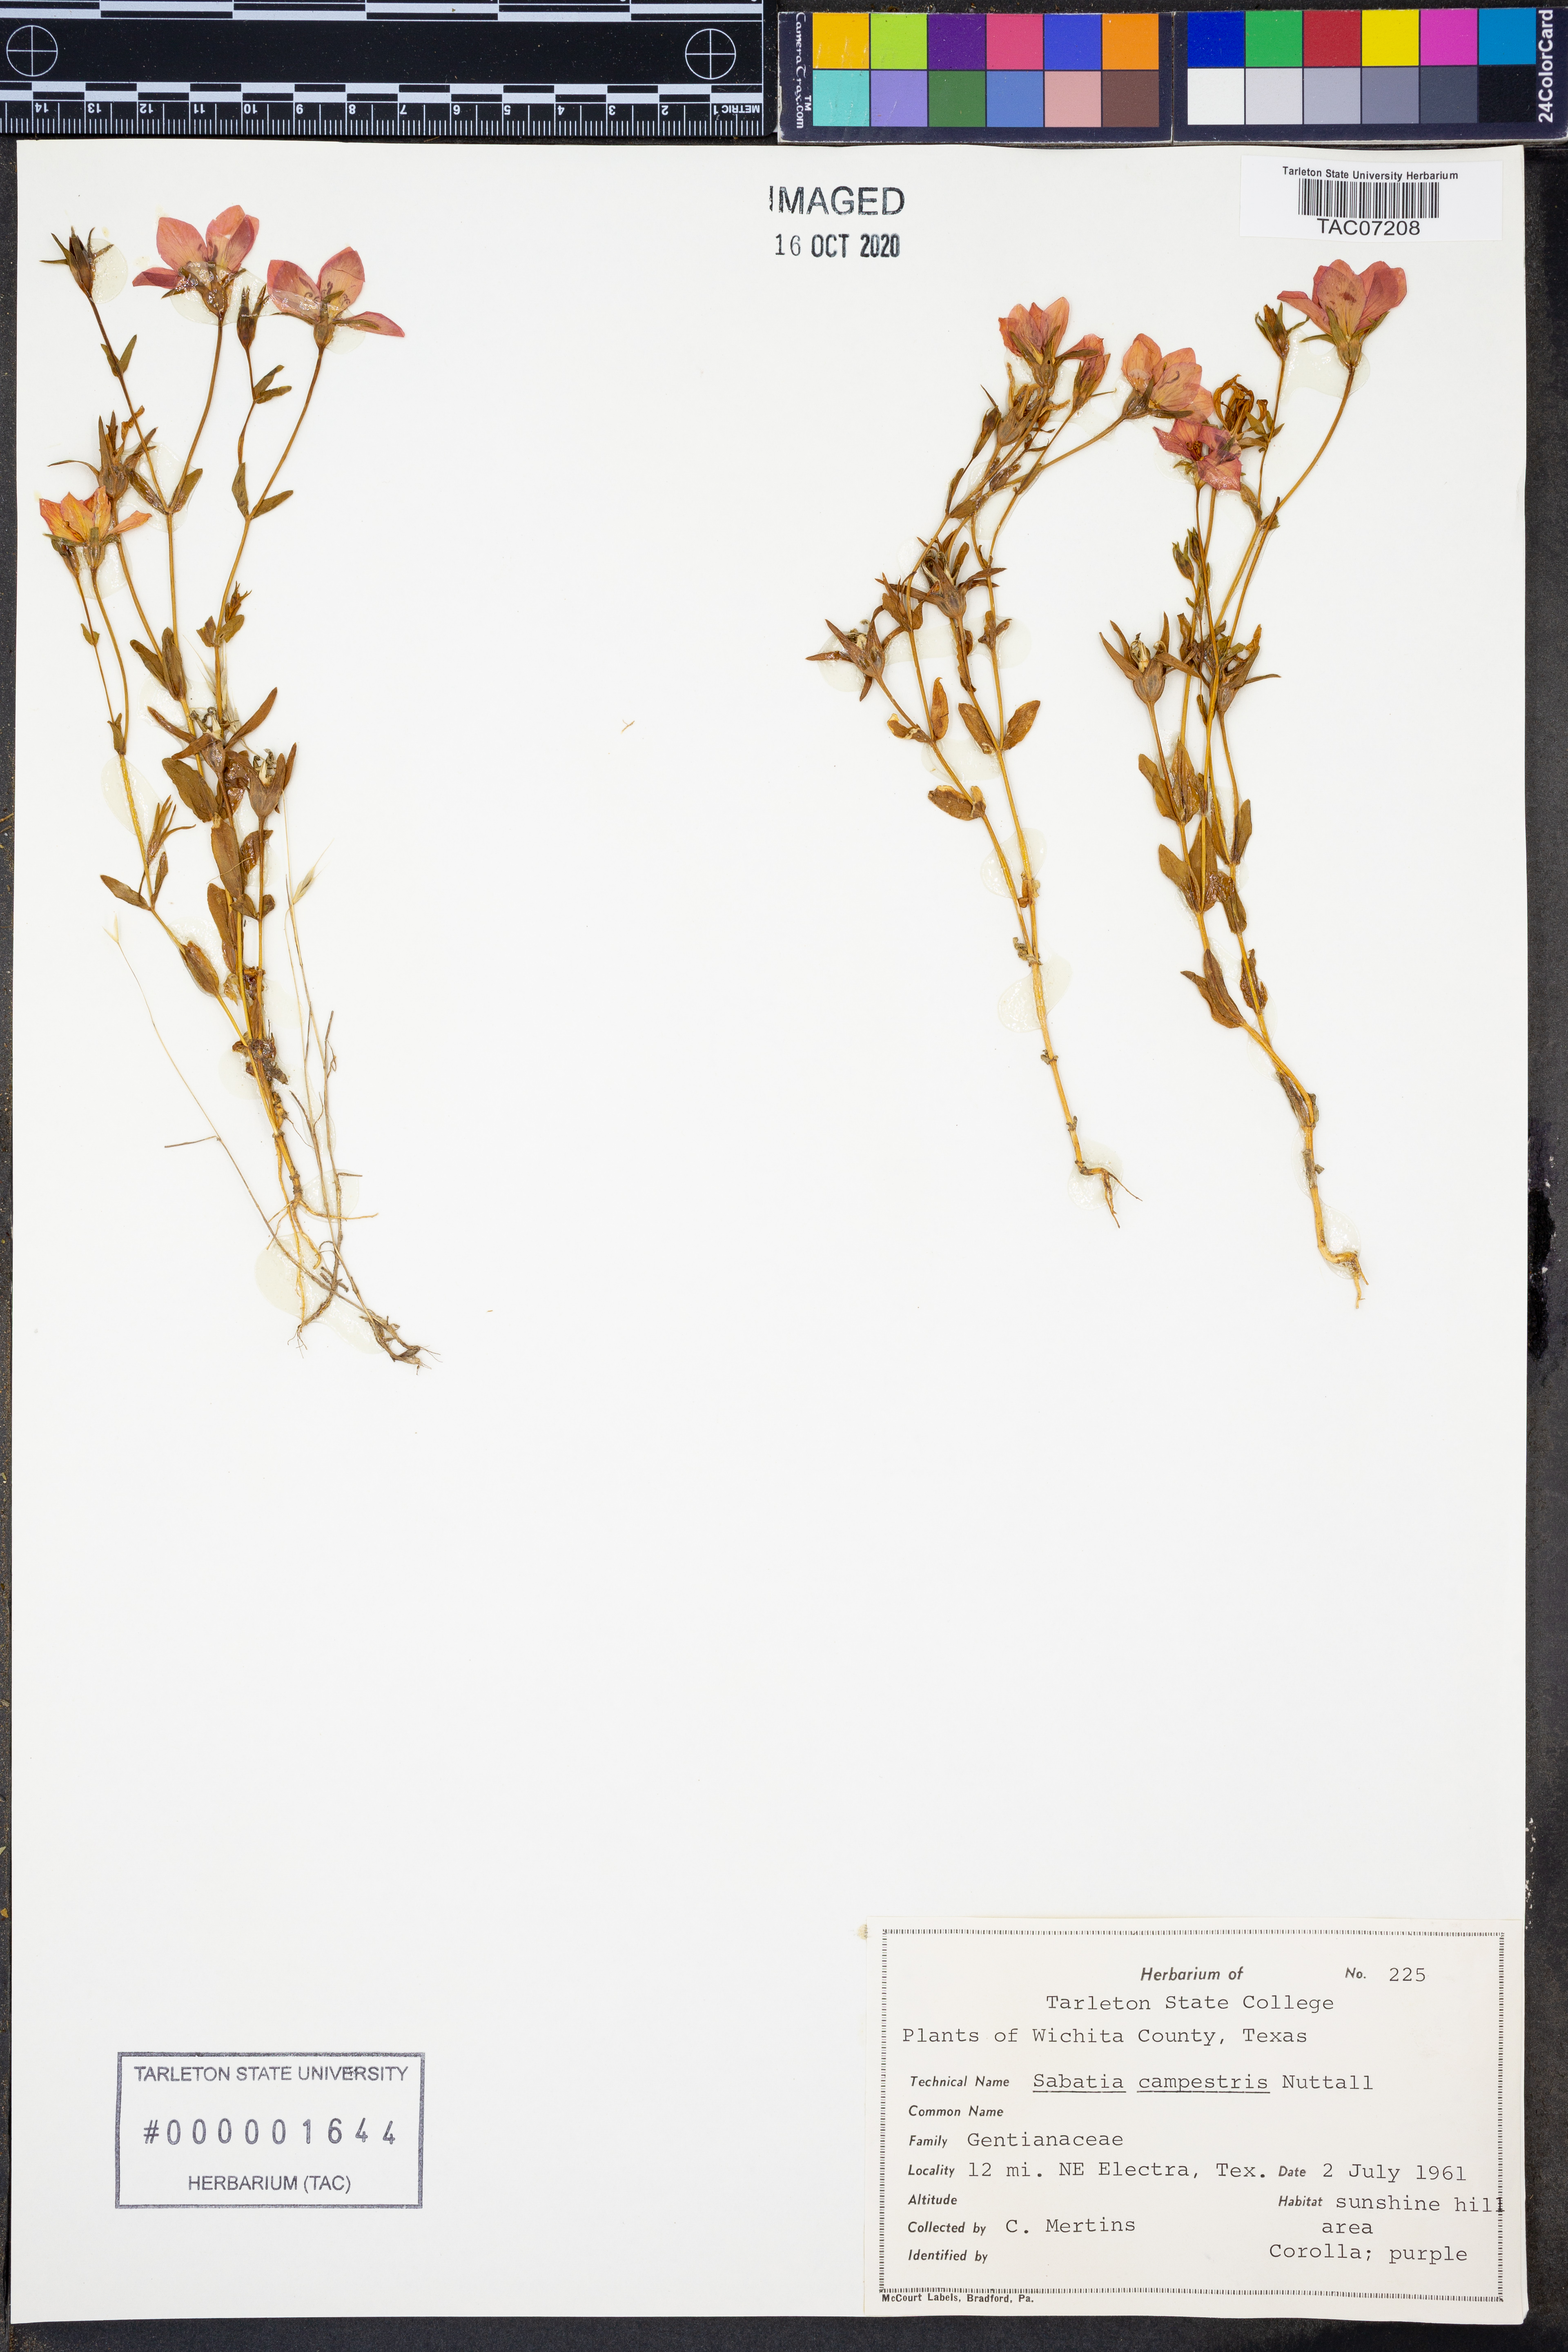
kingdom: Plantae
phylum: Tracheophyta
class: Magnoliopsida
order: Gentianales
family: Gentianaceae
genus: Sabatia
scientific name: Sabatia campestris
